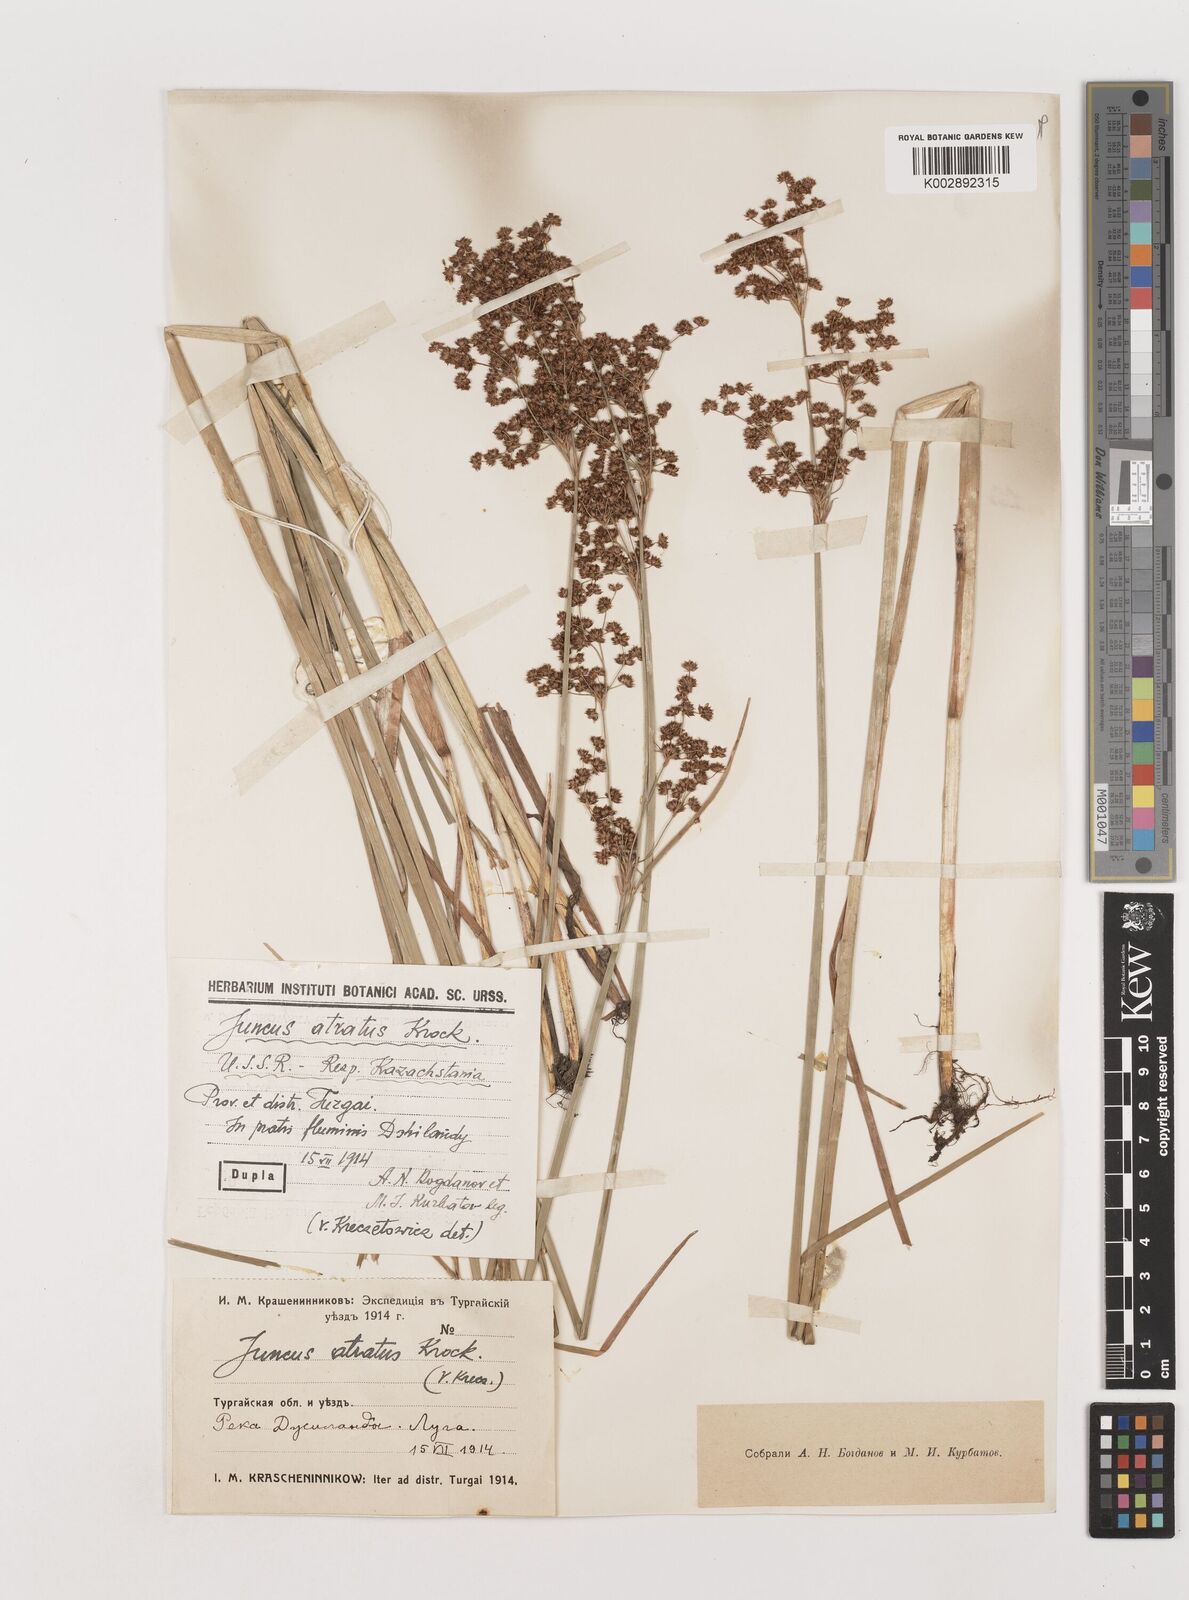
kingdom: Plantae
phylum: Tracheophyta
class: Liliopsida
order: Poales
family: Juncaceae
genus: Juncus
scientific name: Juncus atratus
